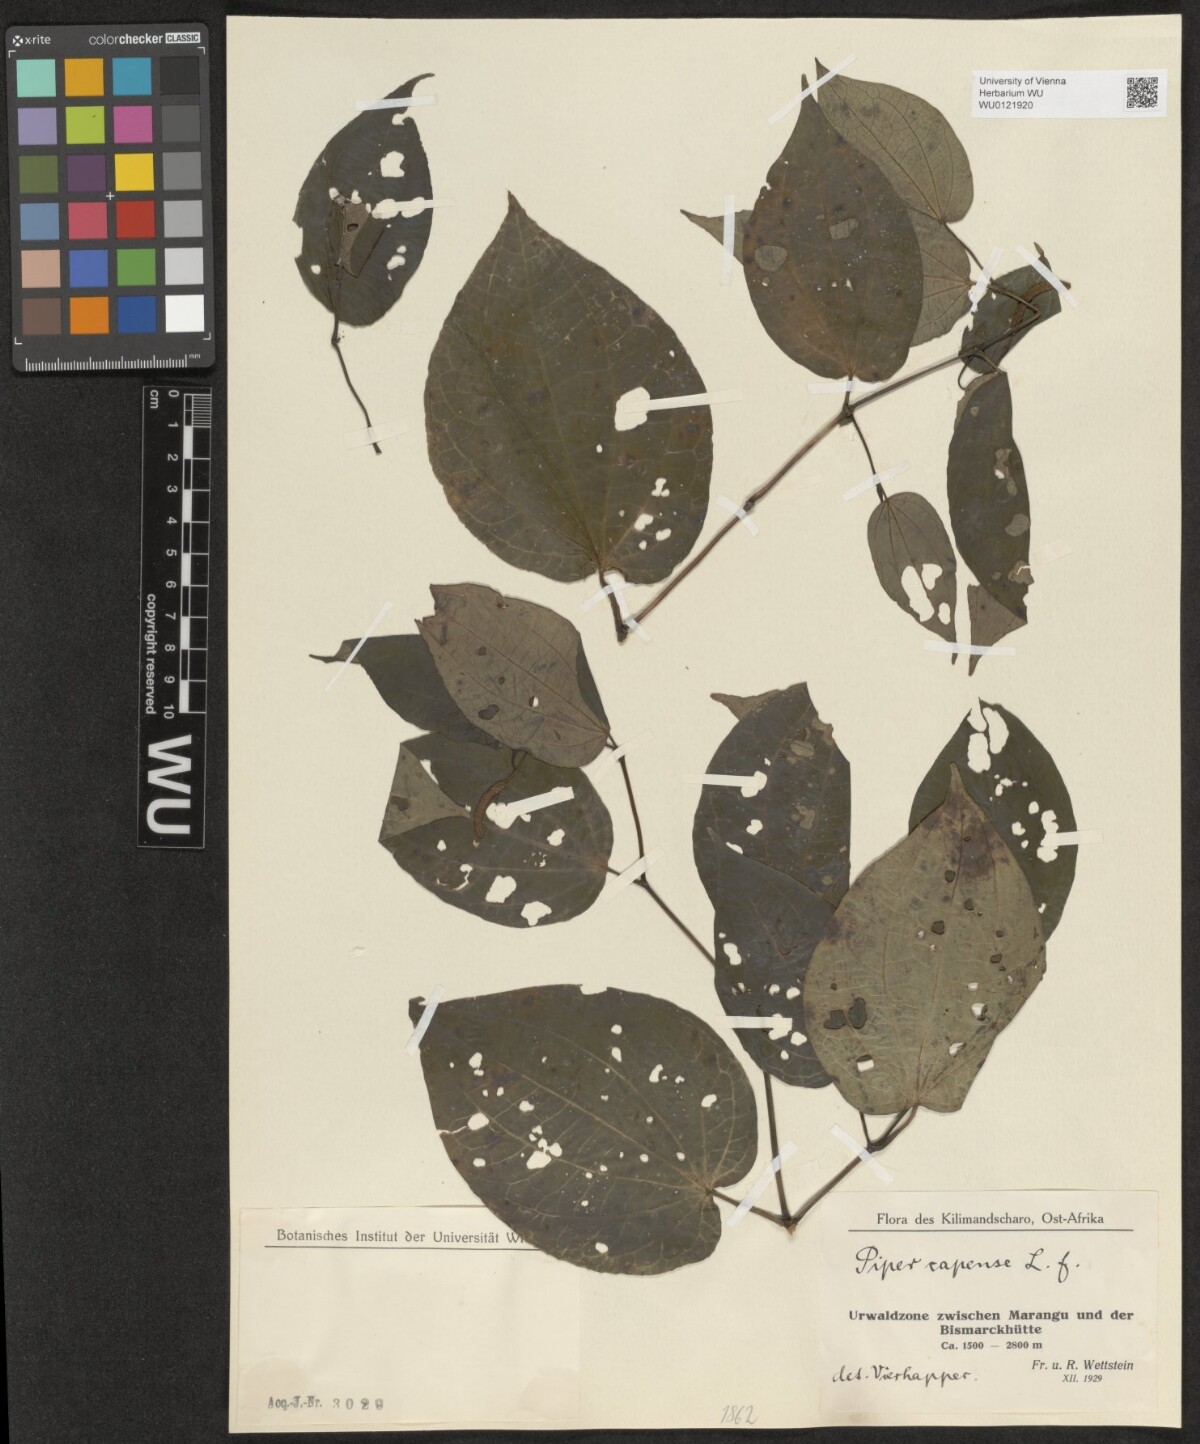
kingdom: Plantae
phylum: Tracheophyta
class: Magnoliopsida
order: Piperales
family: Piperaceae
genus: Piper
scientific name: Piper capense
